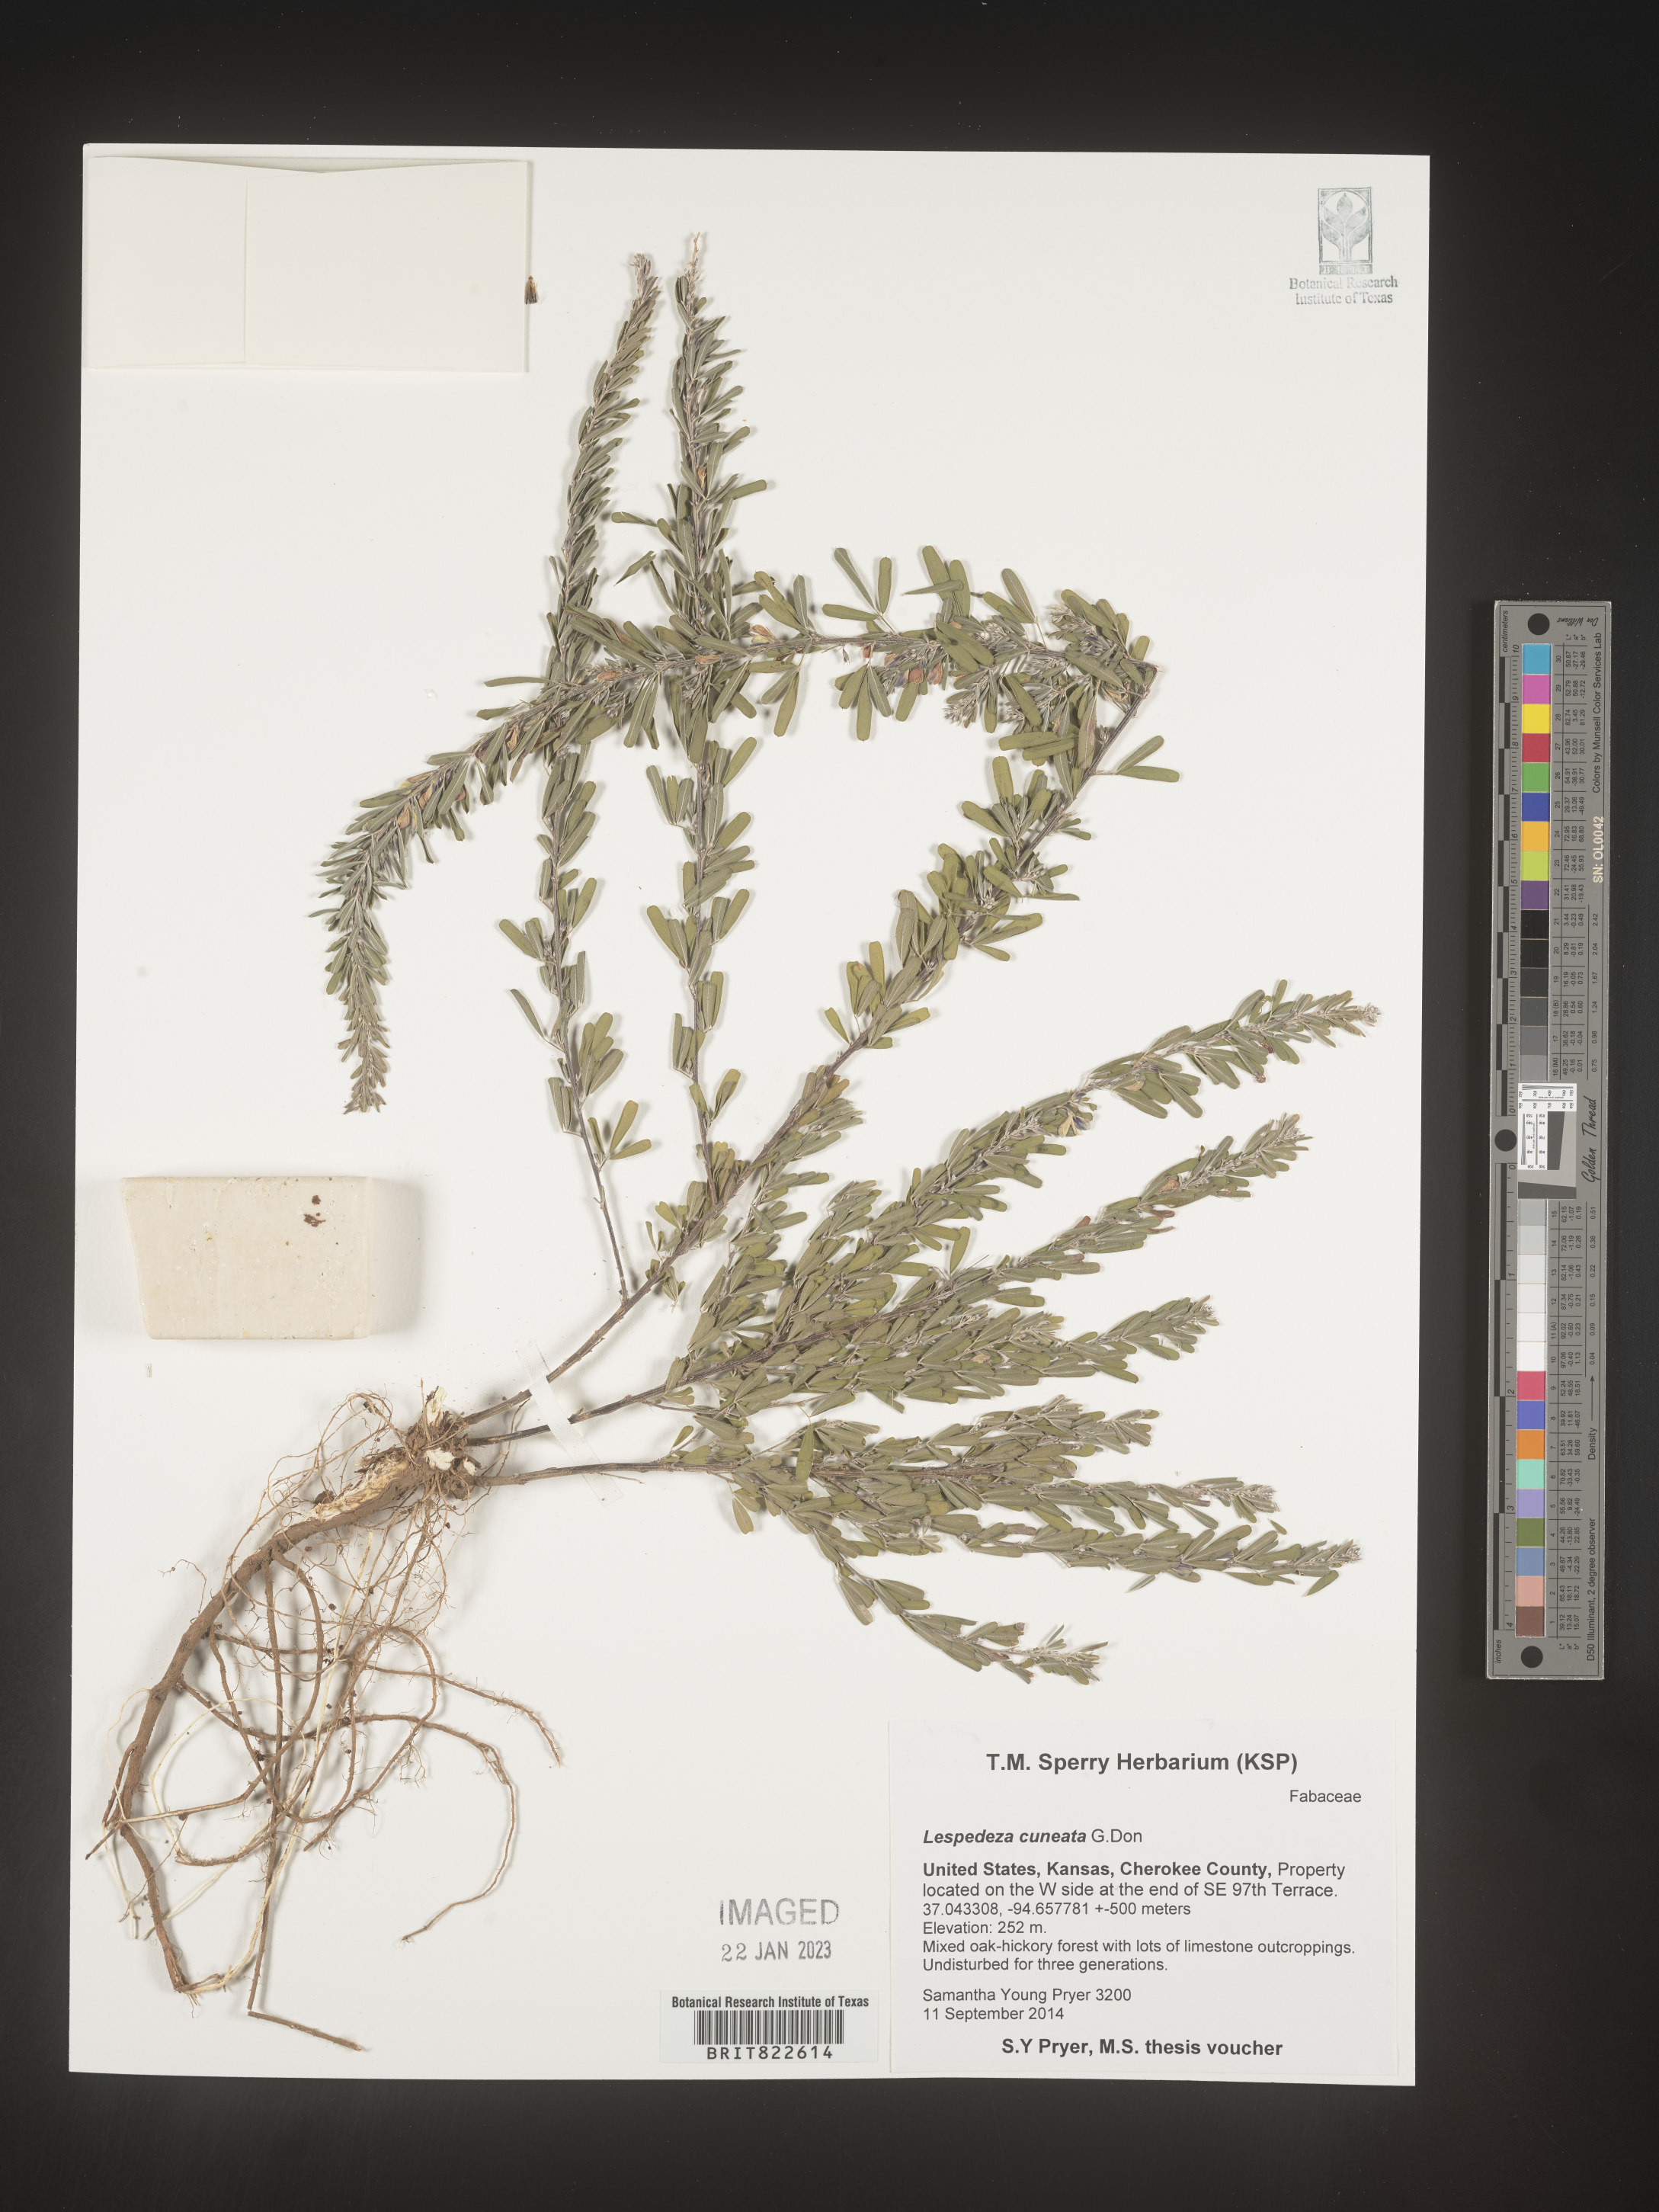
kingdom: Plantae
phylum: Tracheophyta
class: Magnoliopsida
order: Fabales
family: Fabaceae
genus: Lespedeza
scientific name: Lespedeza cuneata
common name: Chinese bush-clover
